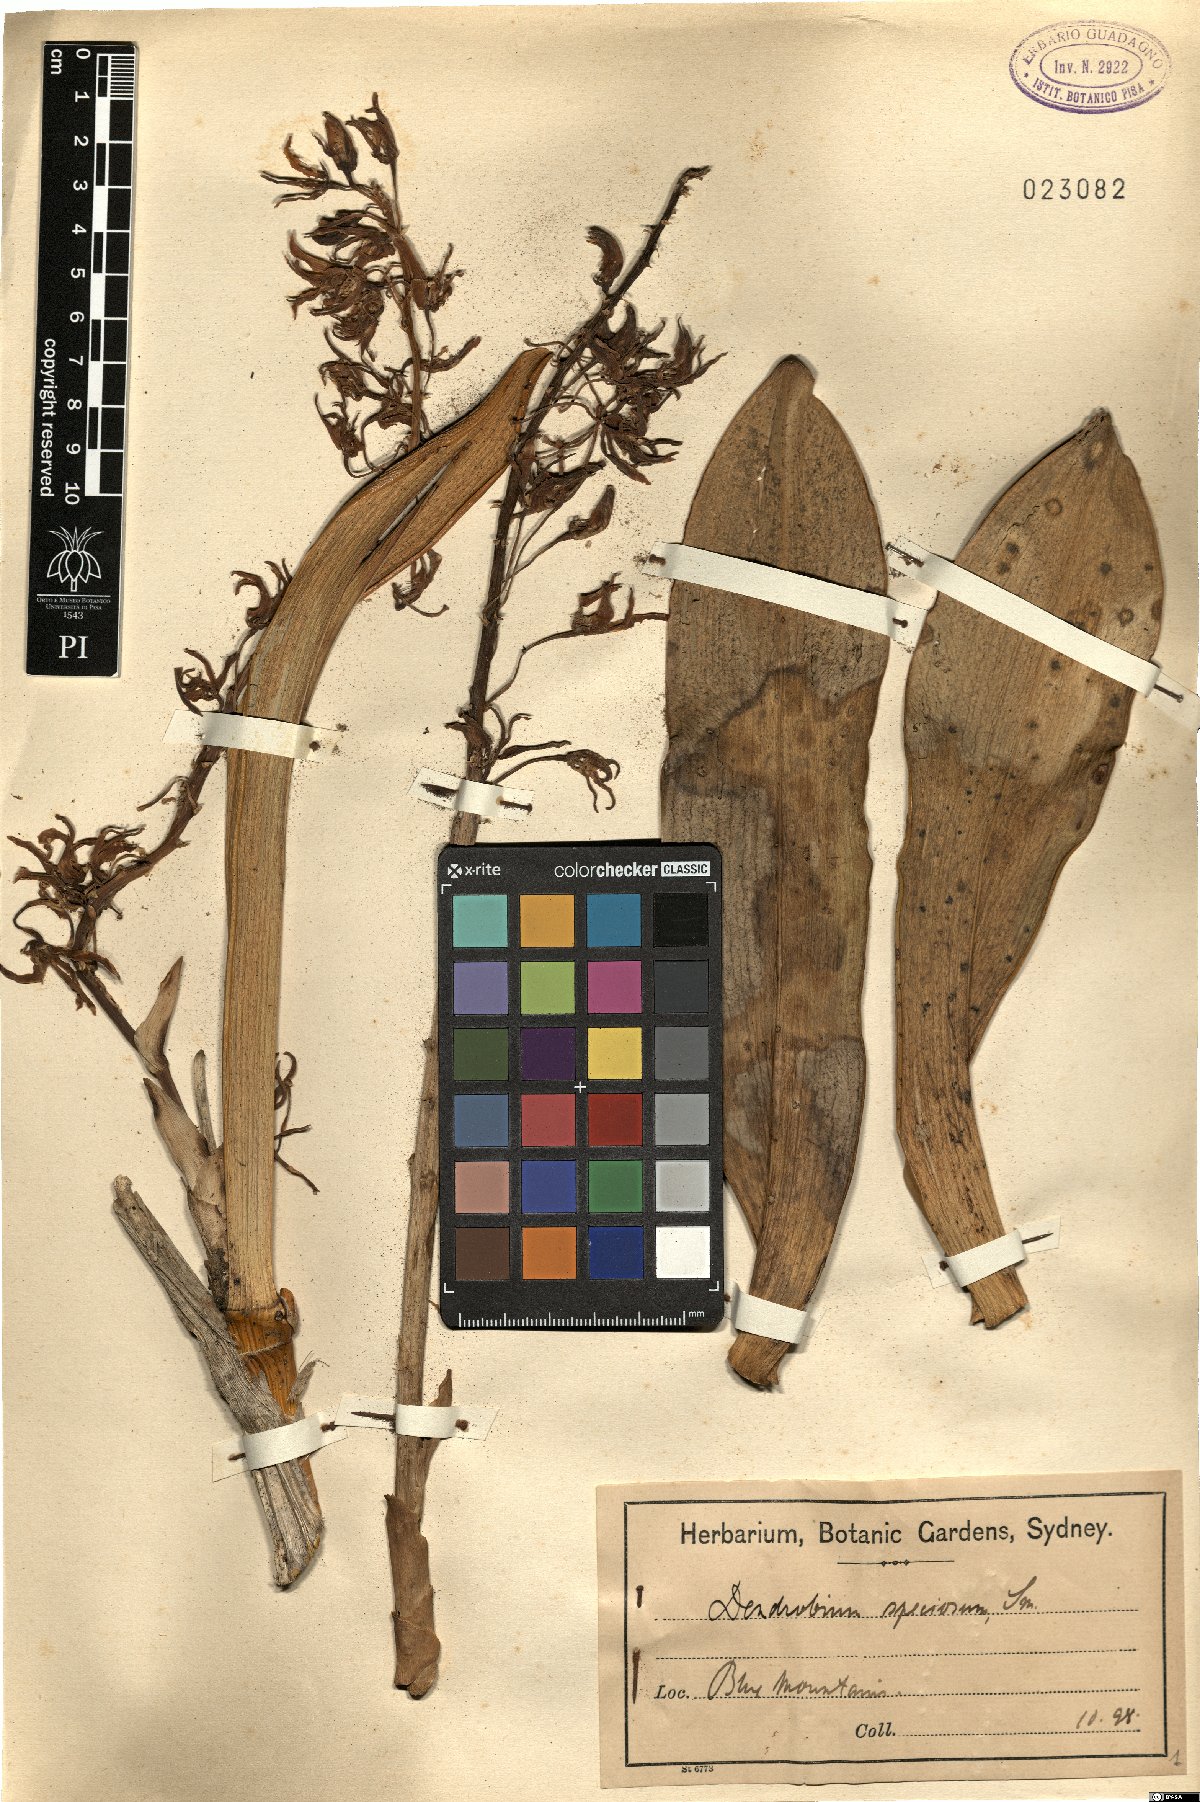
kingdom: Plantae
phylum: Tracheophyta
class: Liliopsida
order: Asparagales
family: Orchidaceae
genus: Dendrobium
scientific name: Dendrobium speciosum
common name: Rock-lily
